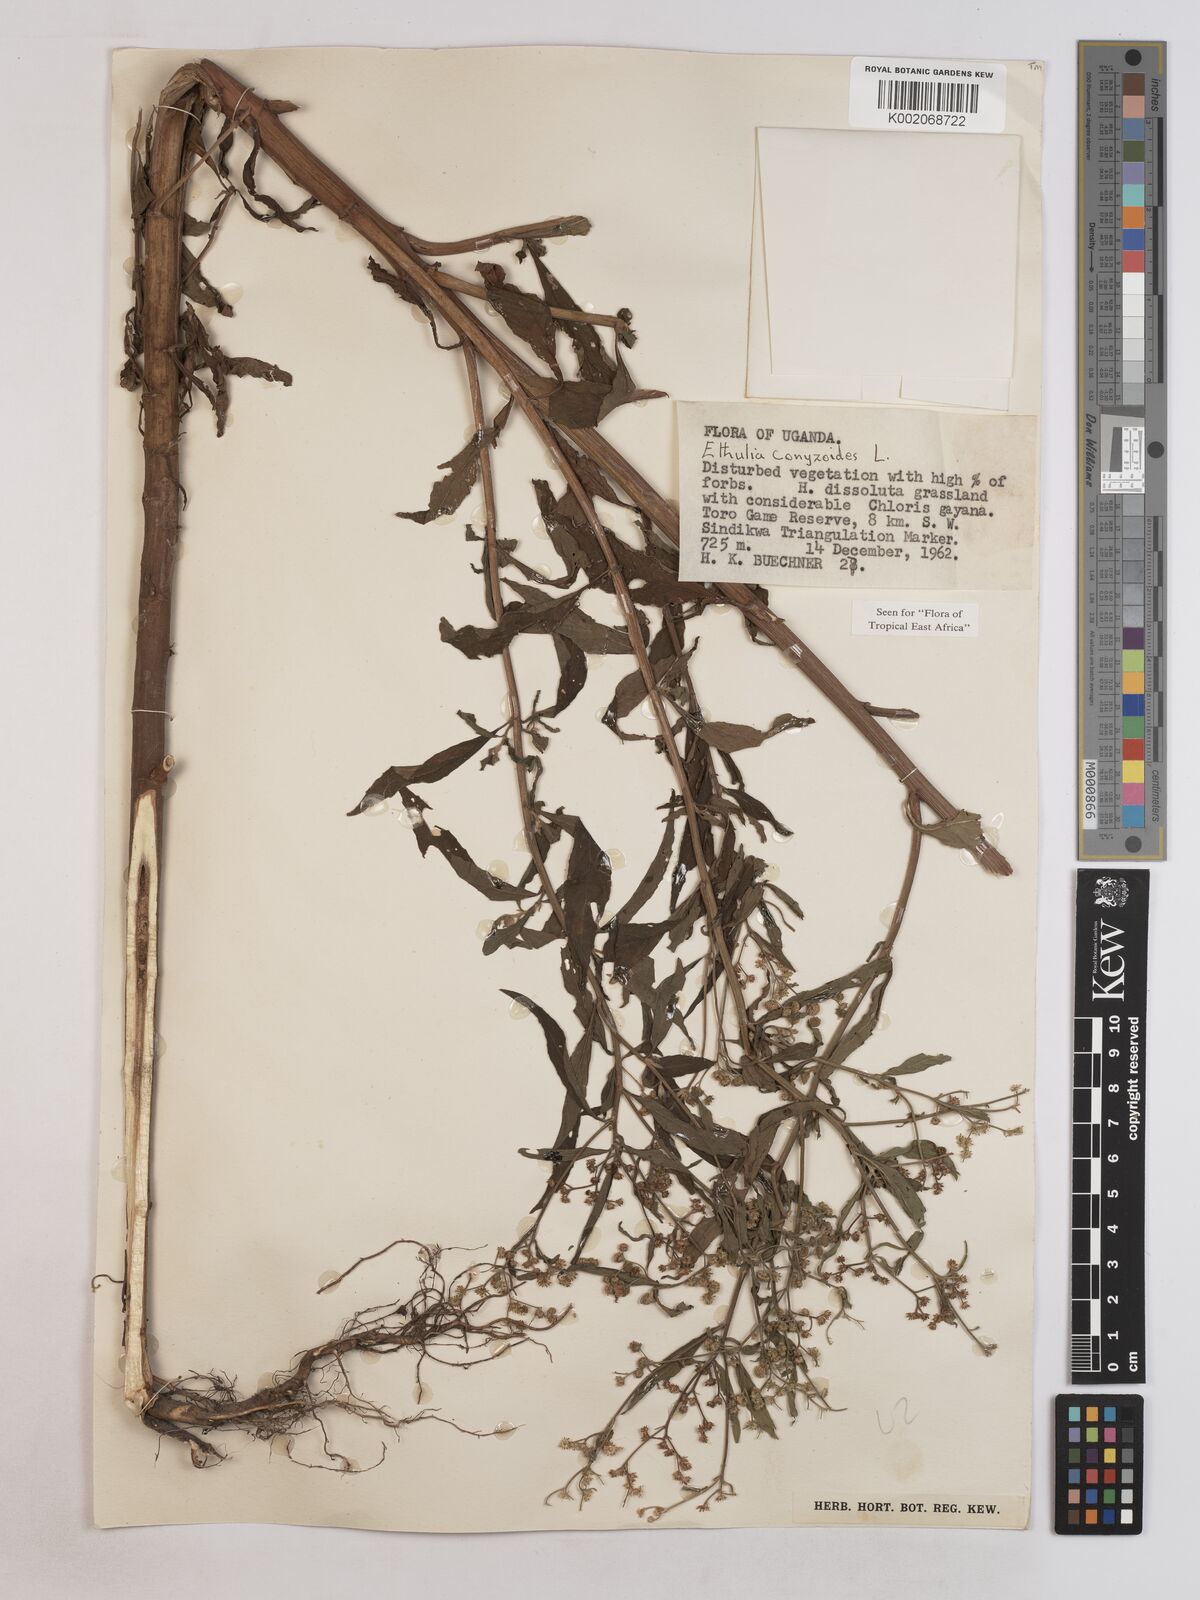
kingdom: Plantae
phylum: Tracheophyta
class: Magnoliopsida
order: Asterales
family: Asteraceae
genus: Ethulia
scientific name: Ethulia conyzoides
